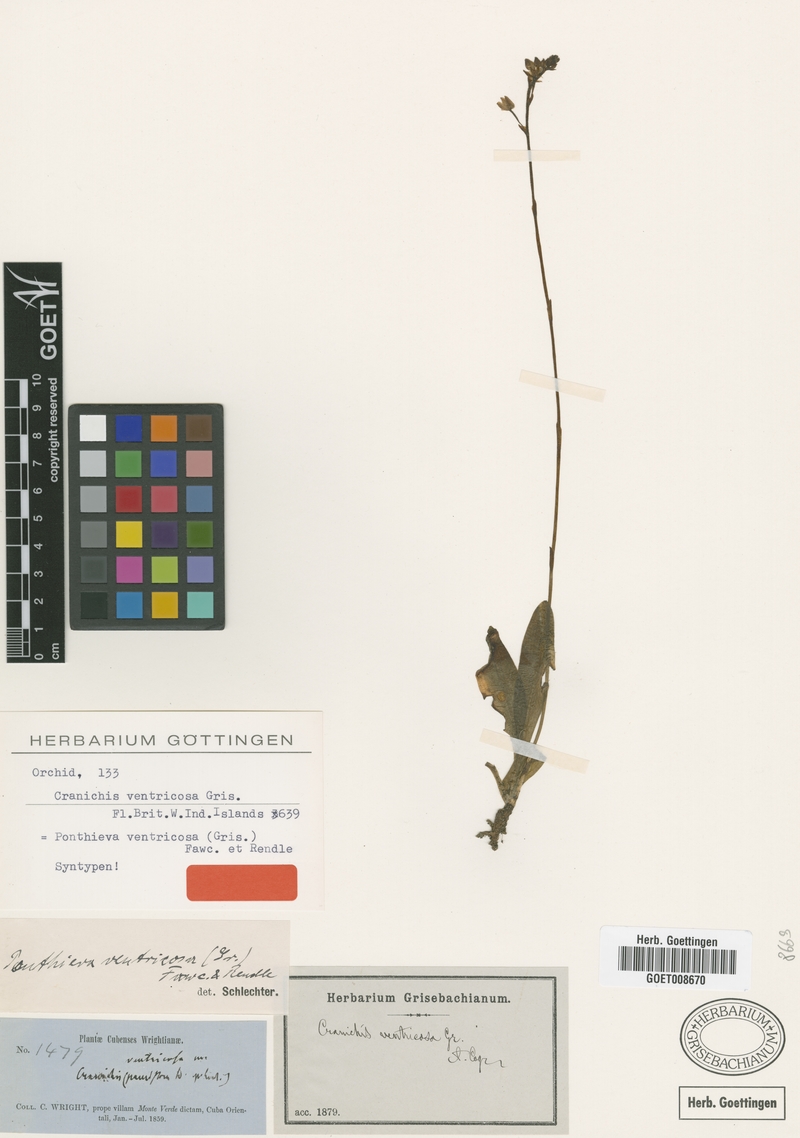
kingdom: Plantae
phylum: Tracheophyta
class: Liliopsida
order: Asparagales
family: Orchidaceae
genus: Ponthieva
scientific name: Ponthieva ventricosa
